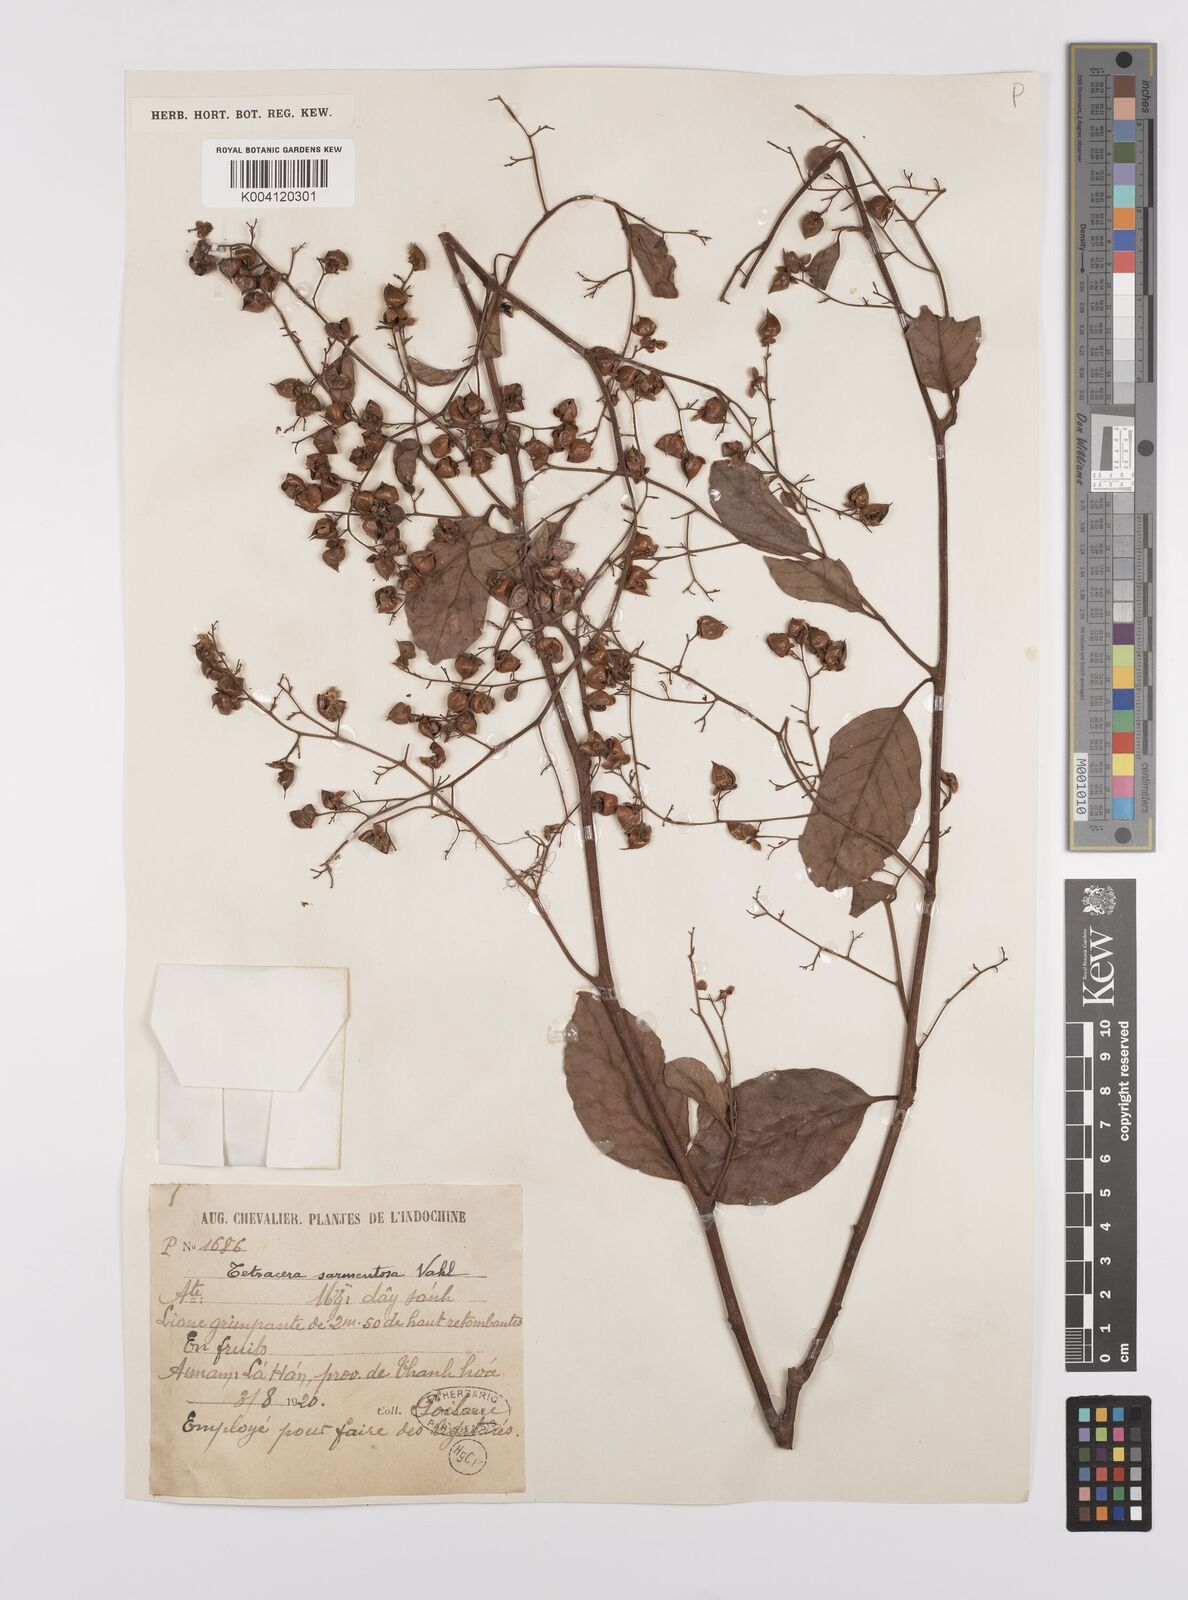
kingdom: Plantae
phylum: Tracheophyta
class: Magnoliopsida
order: Dilleniales
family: Dilleniaceae
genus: Tetracera
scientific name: Tetracera sarmentosa
